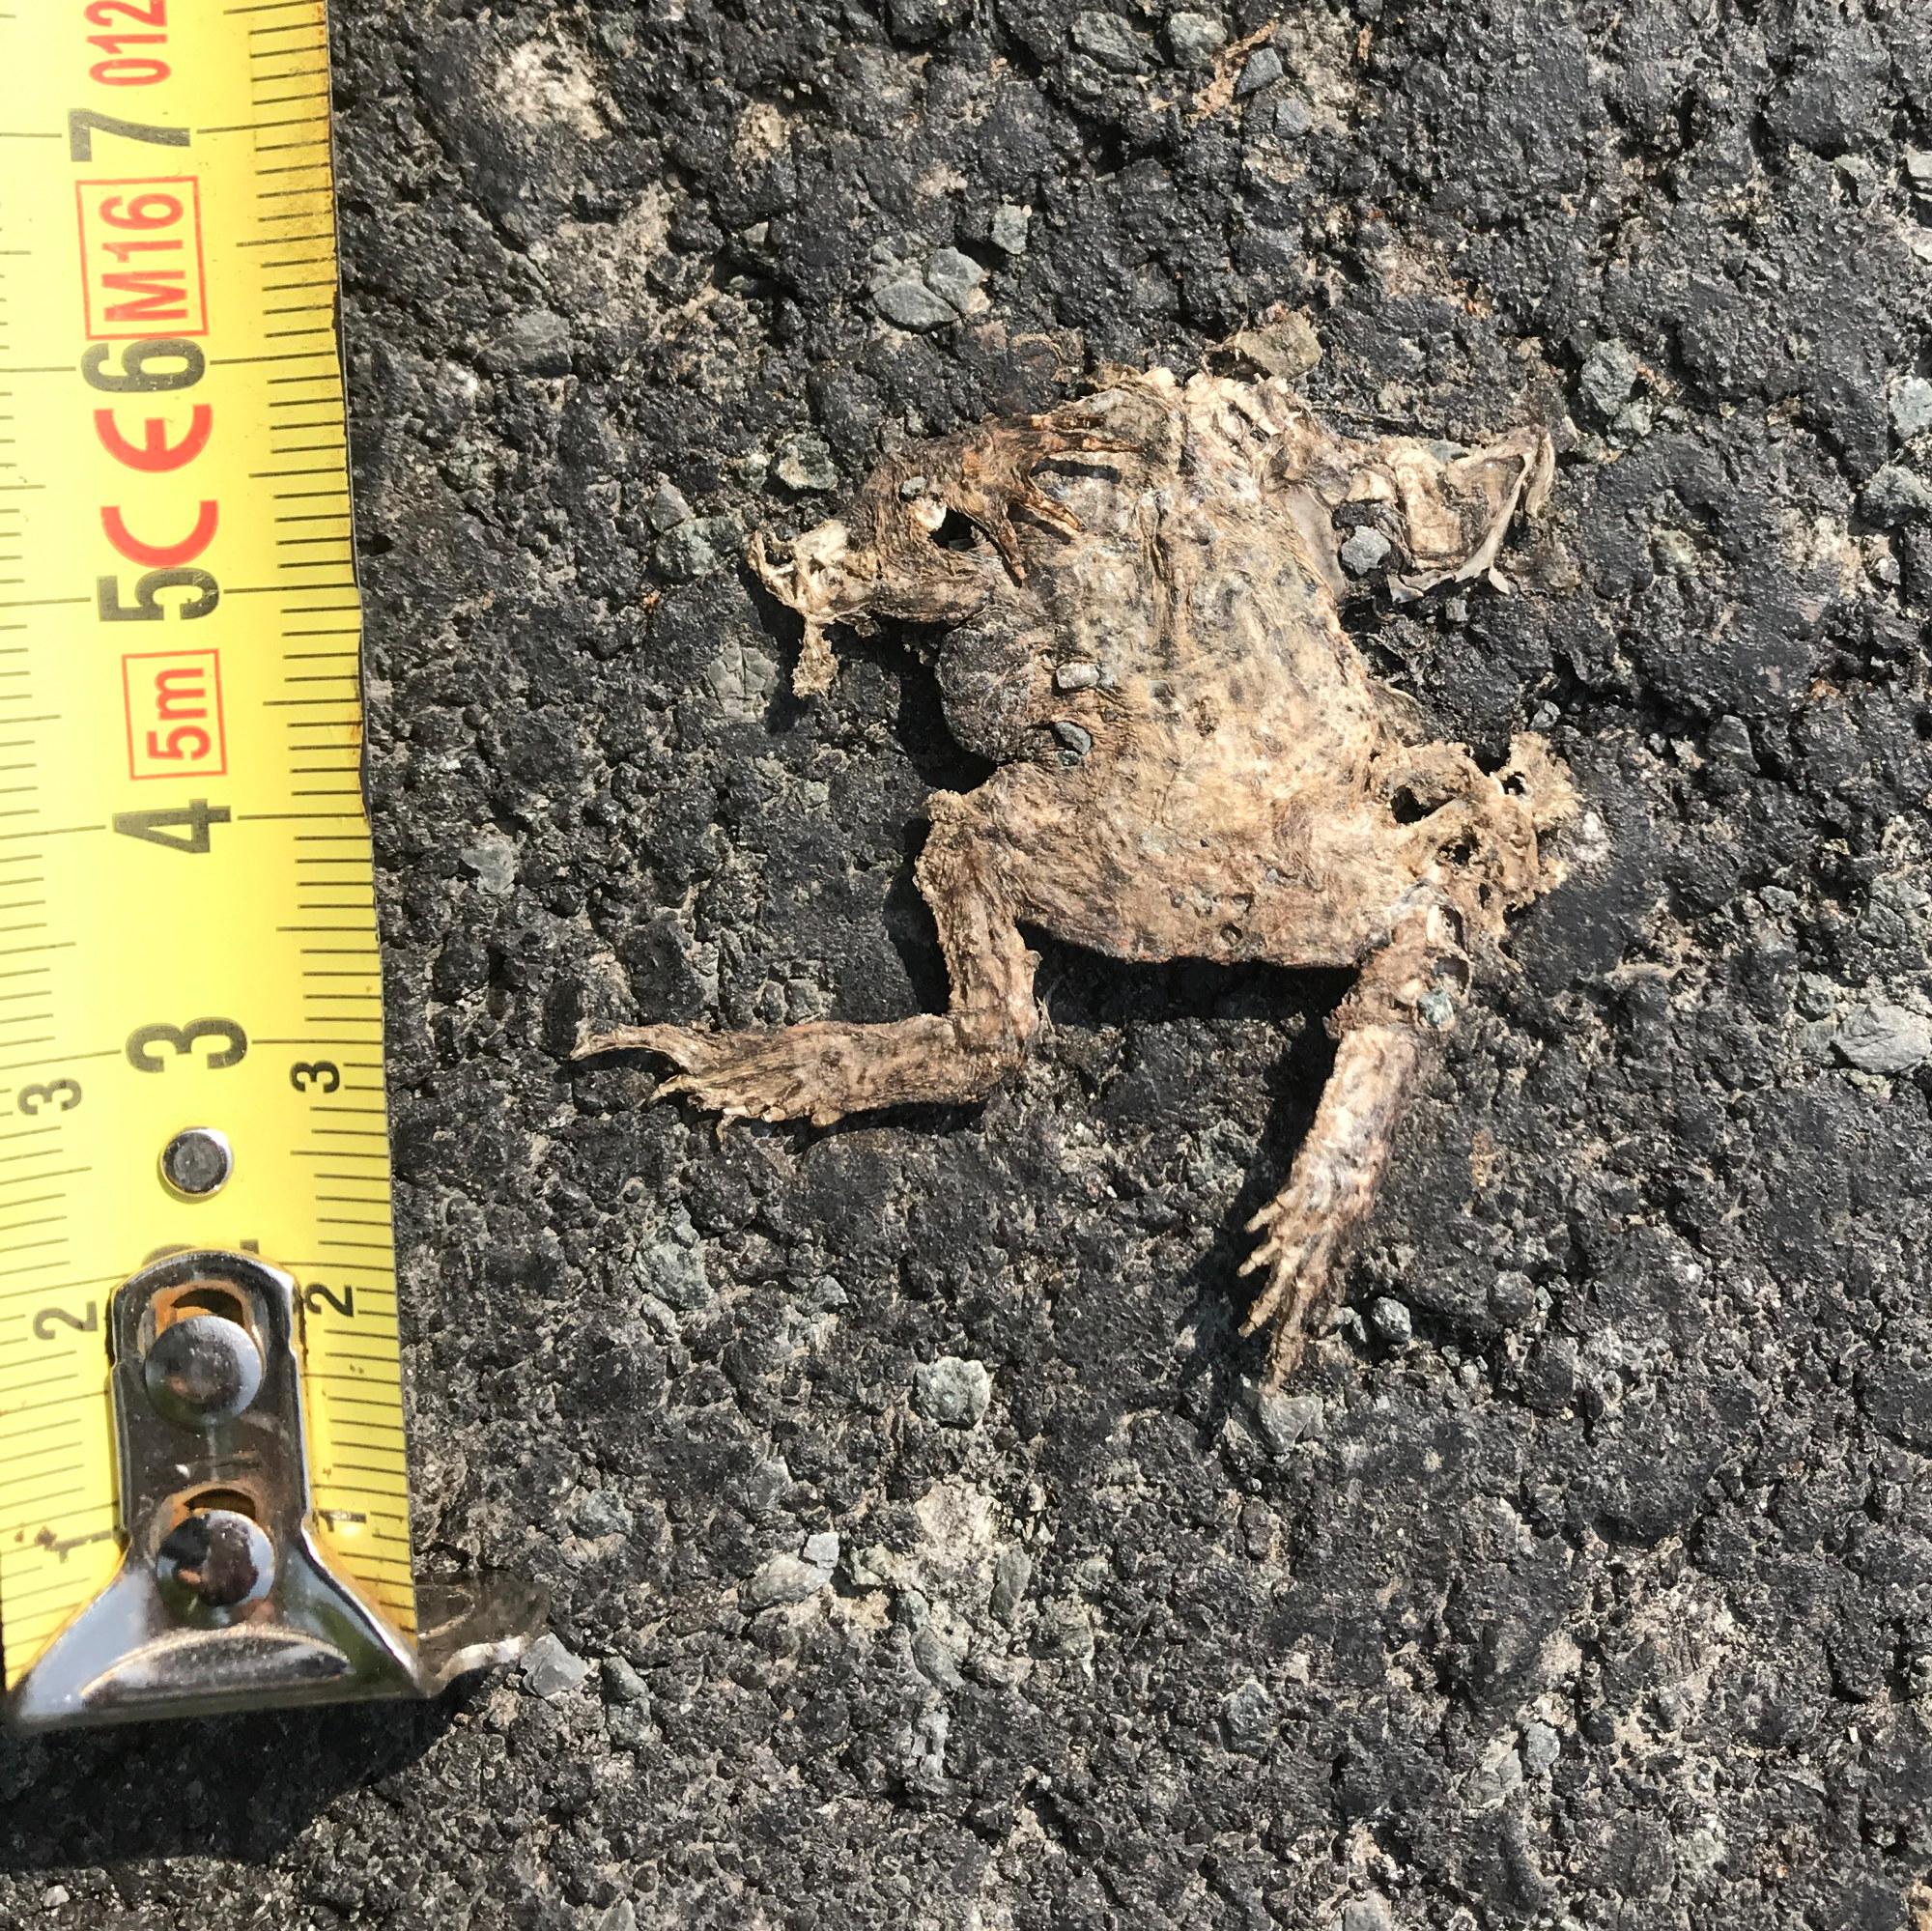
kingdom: Animalia
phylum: Chordata
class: Amphibia
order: Anura
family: Bufonidae
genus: Bufo
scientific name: Bufo bufo
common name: Common toad
